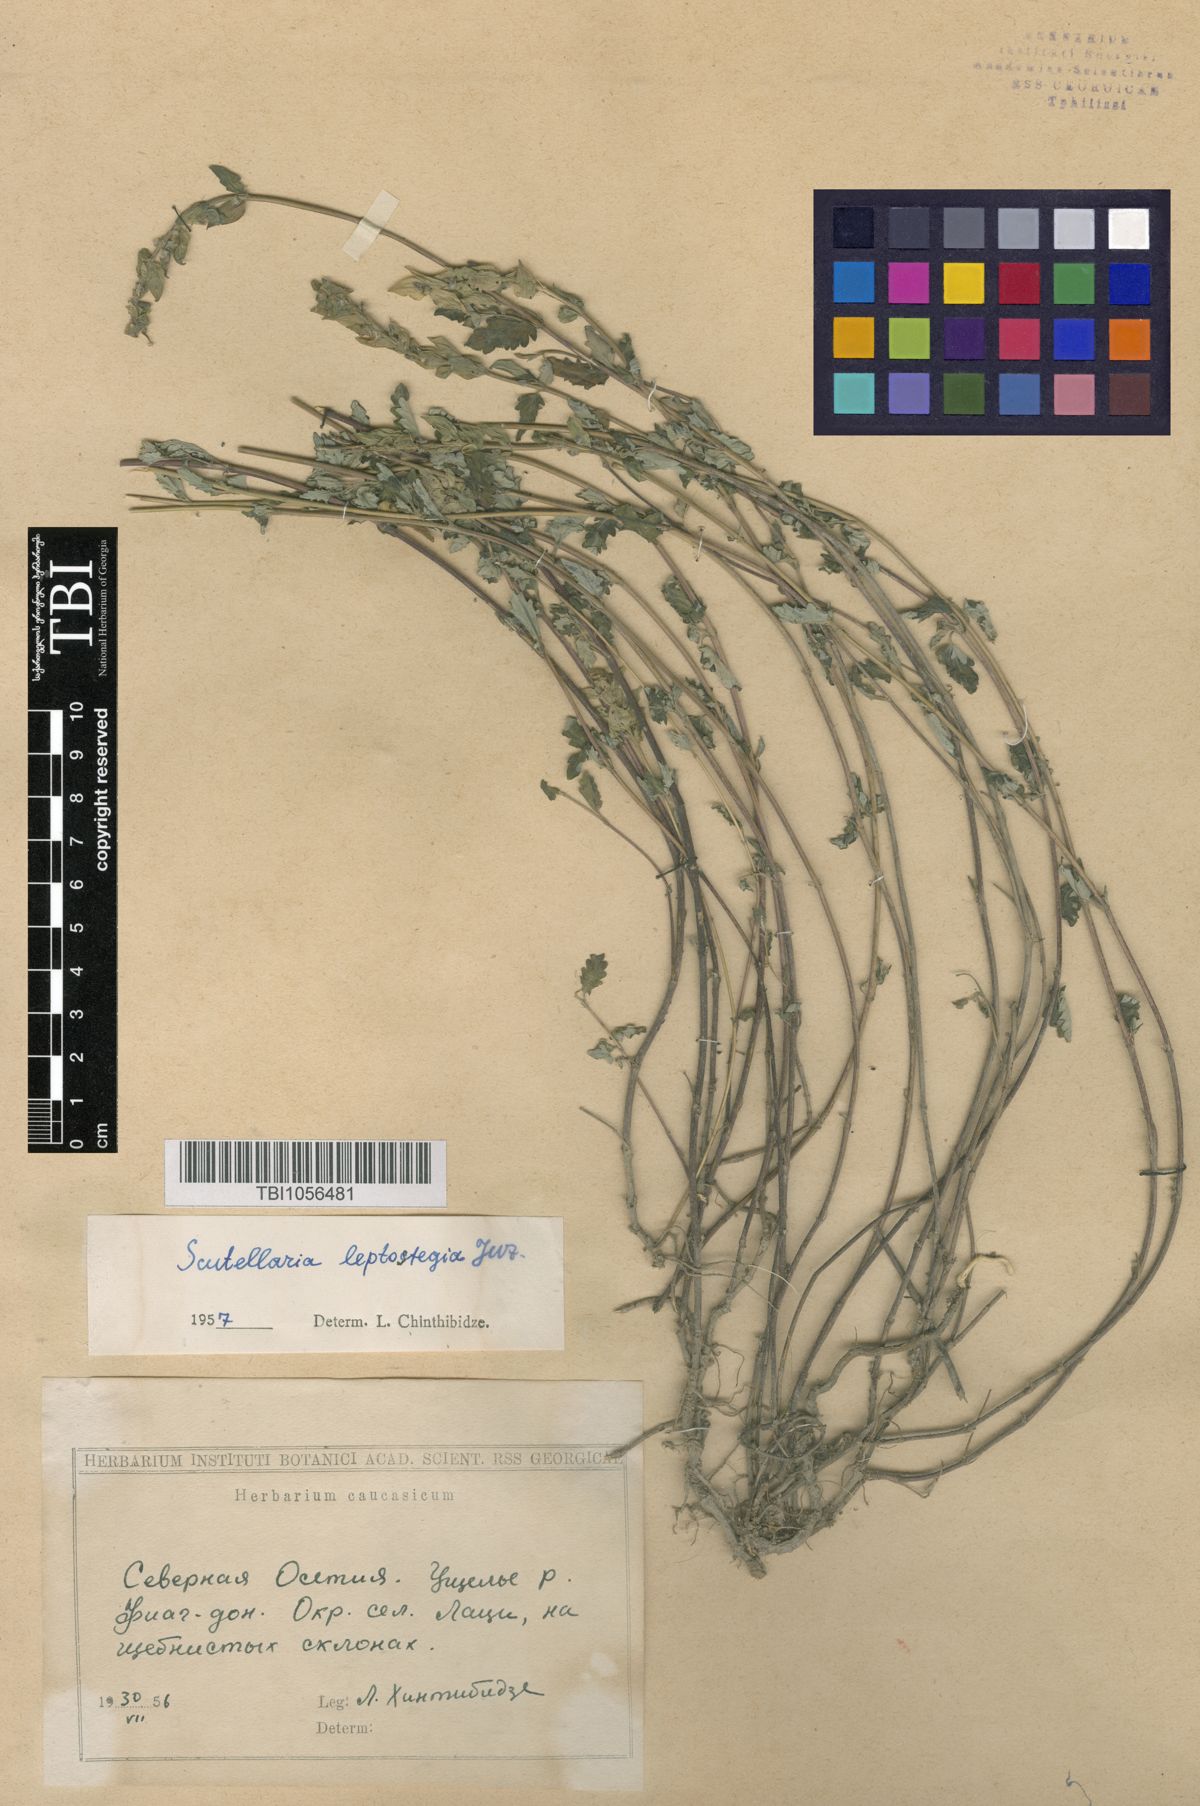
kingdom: Plantae
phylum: Tracheophyta
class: Magnoliopsida
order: Lamiales
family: Lamiaceae
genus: Scutellaria
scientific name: Scutellaria leptostegia
